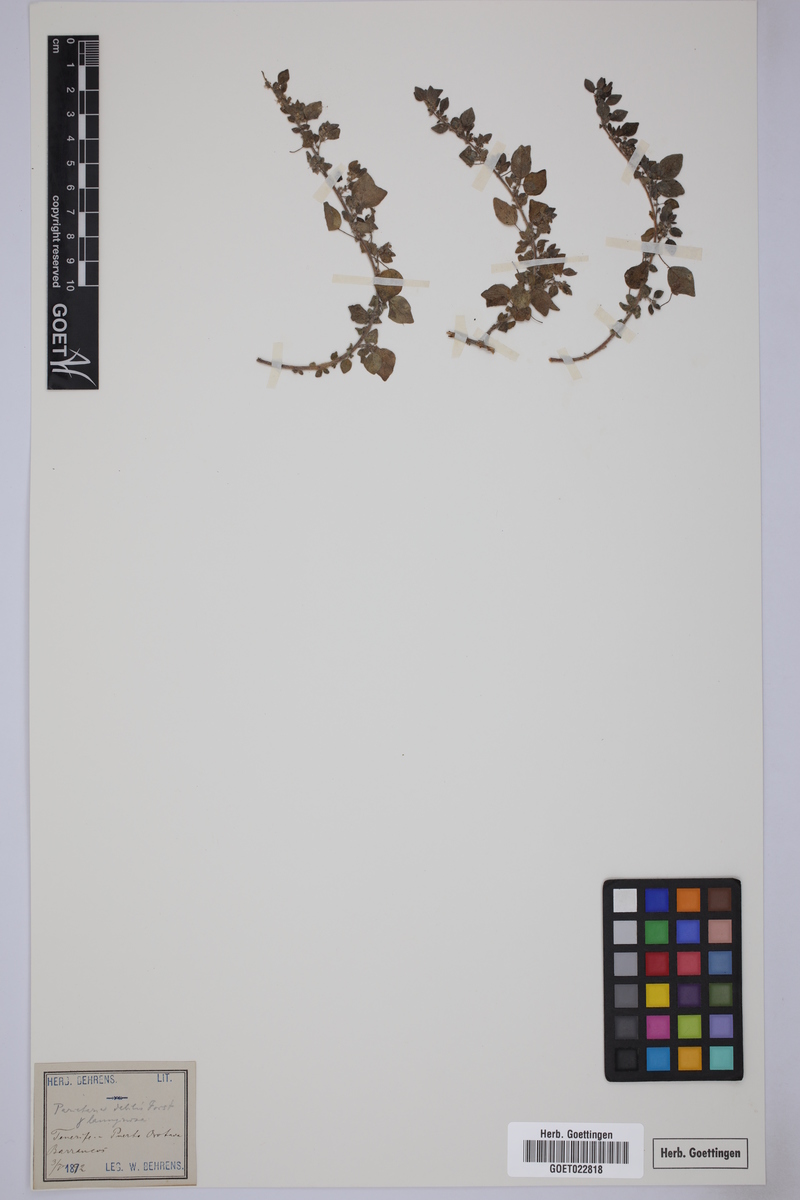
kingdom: Plantae
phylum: Tracheophyta
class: Magnoliopsida
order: Rosales
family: Urticaceae
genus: Parietaria
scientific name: Parietaria debilis
